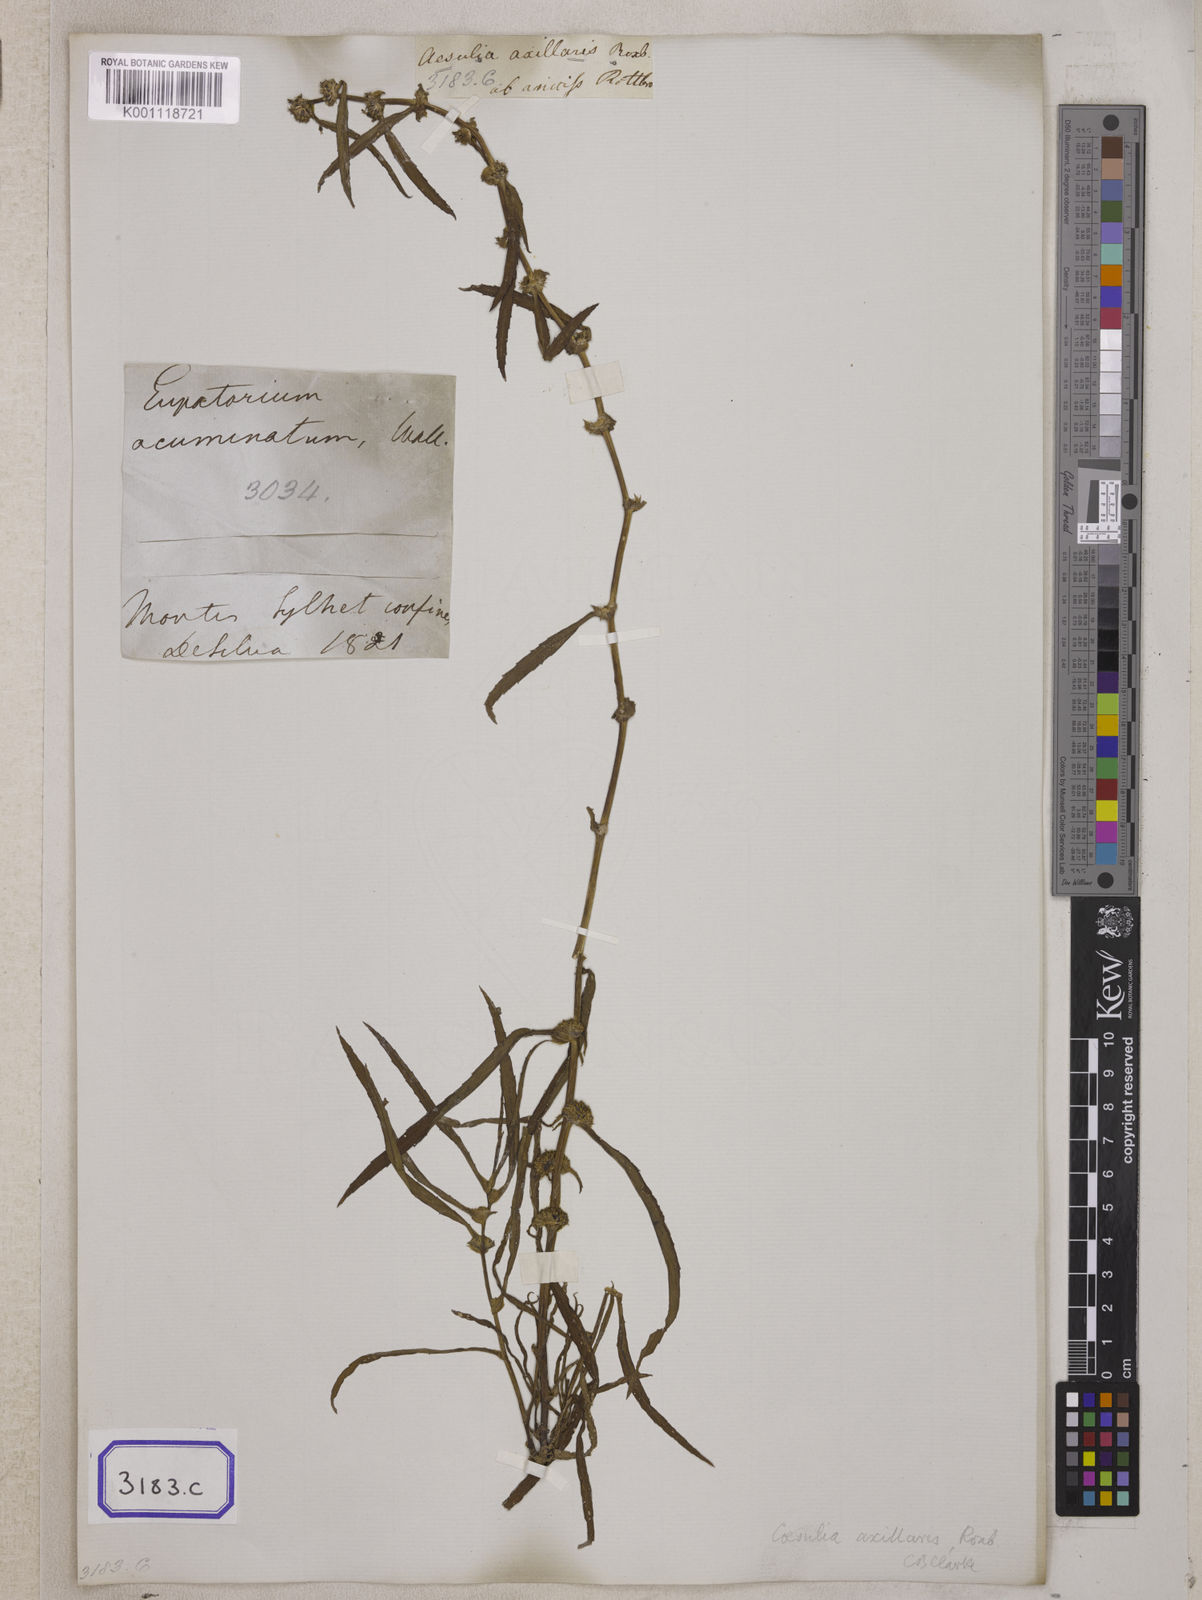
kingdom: Plantae
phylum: Tracheophyta
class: Magnoliopsida
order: Asterales
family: Asteraceae
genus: Caesulia
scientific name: Caesulia axillaris
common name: Pink node flower
